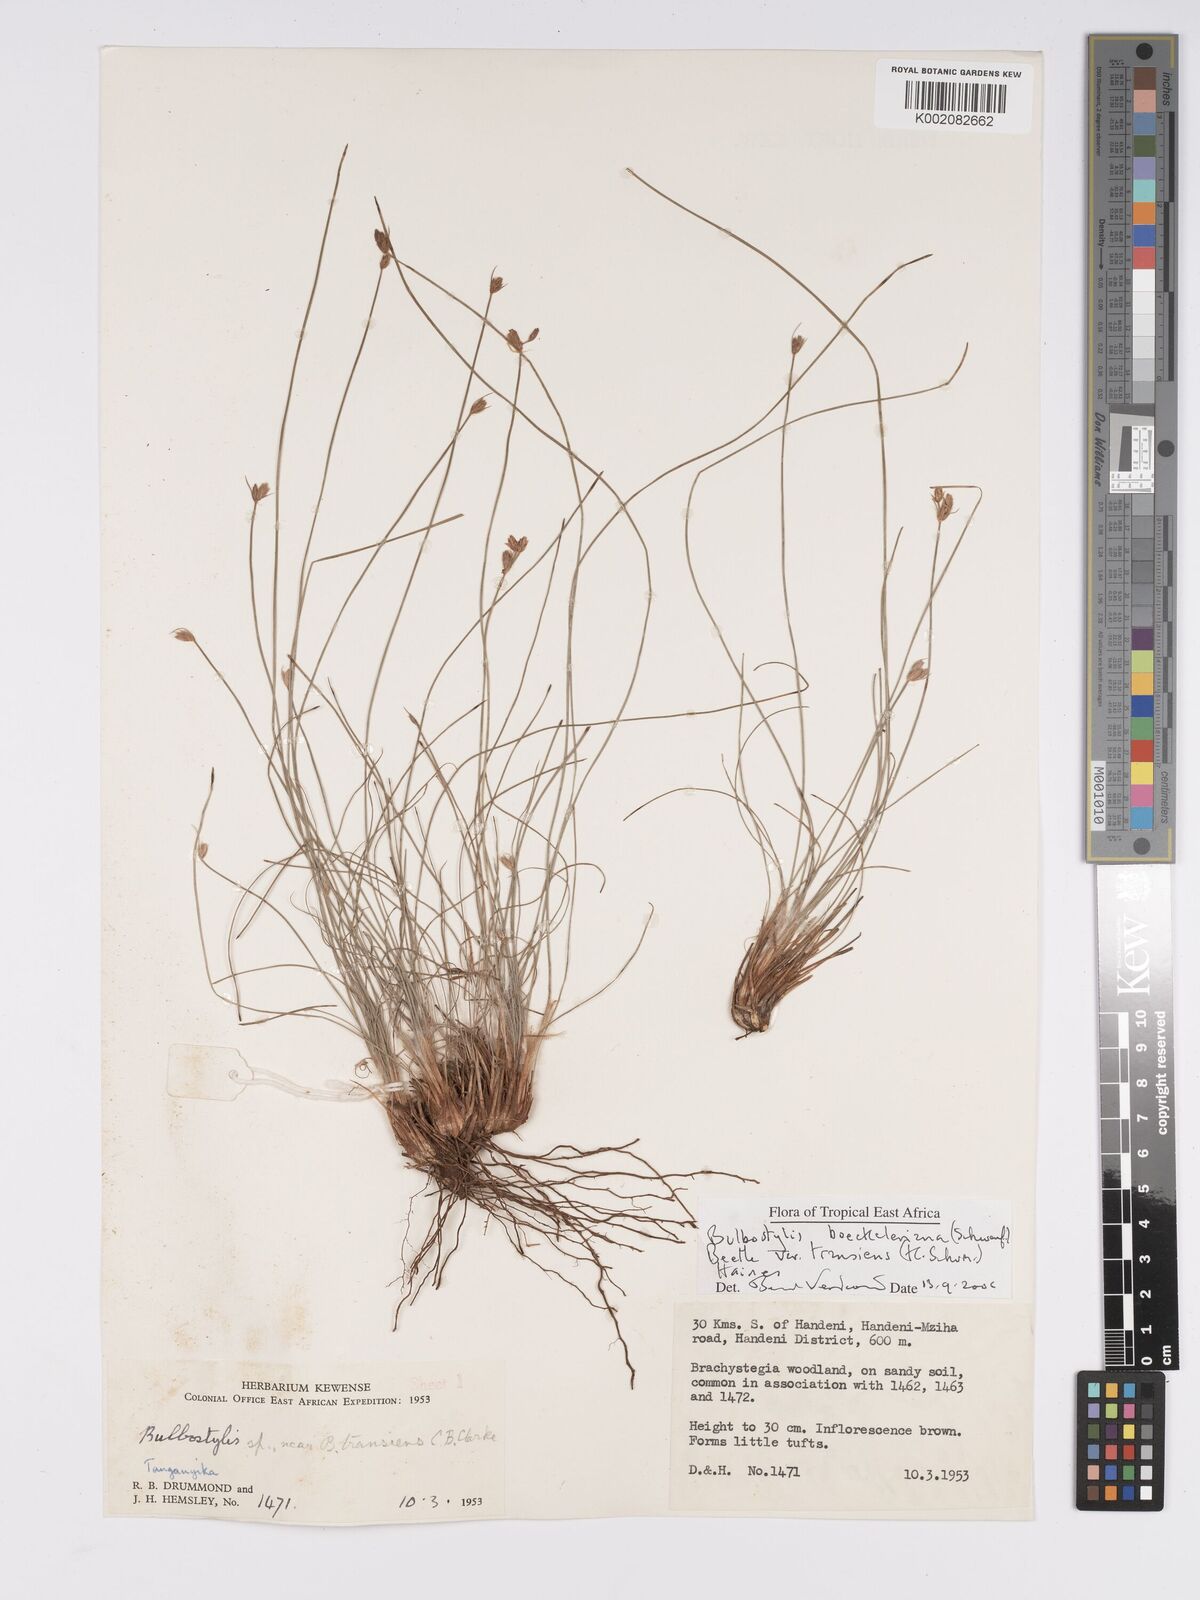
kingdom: Plantae
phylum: Tracheophyta
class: Liliopsida
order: Poales
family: Cyperaceae
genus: Bulbostylis
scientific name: Bulbostylis boeckeleriana
